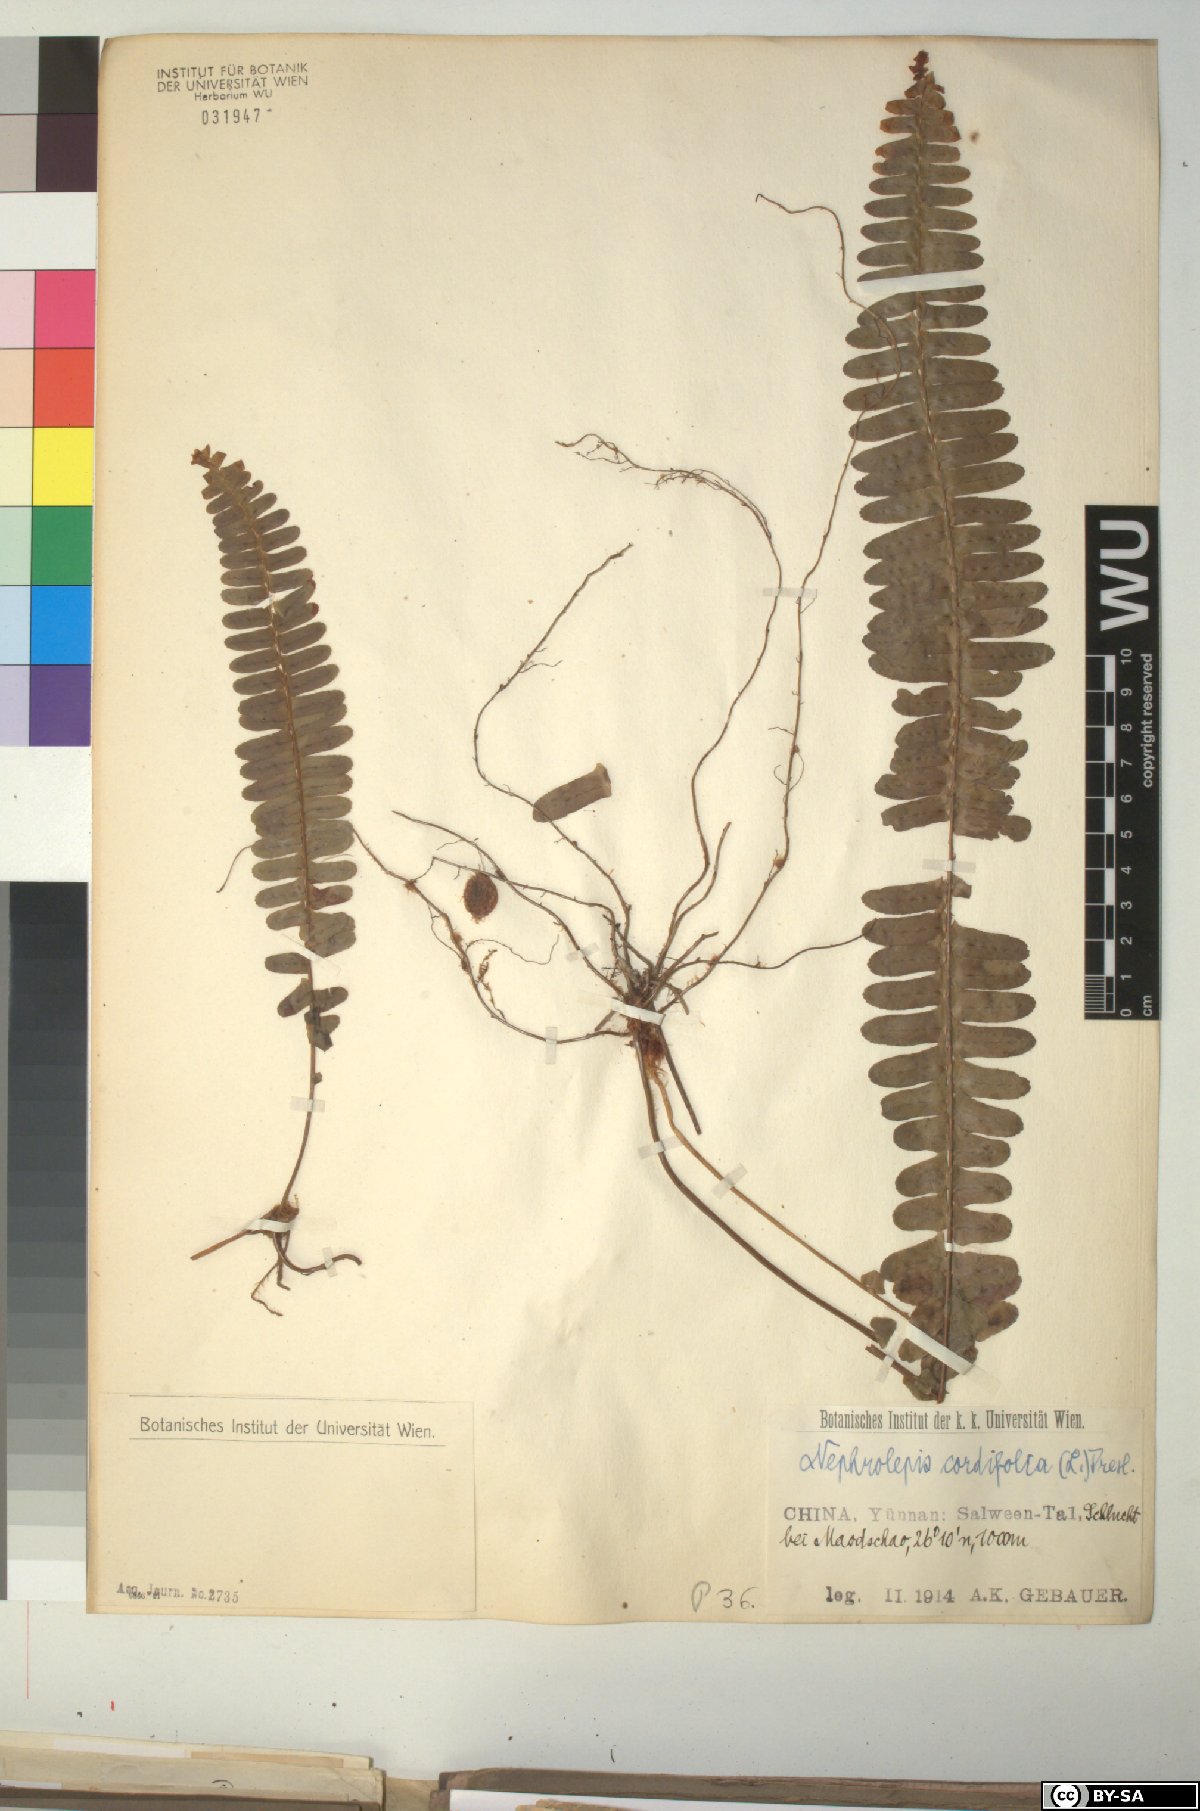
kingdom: Plantae
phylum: Tracheophyta
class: Polypodiopsida
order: Polypodiales
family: Nephrolepidaceae
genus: Nephrolepis
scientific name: Nephrolepis cordifolia
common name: Narrow swordfern
